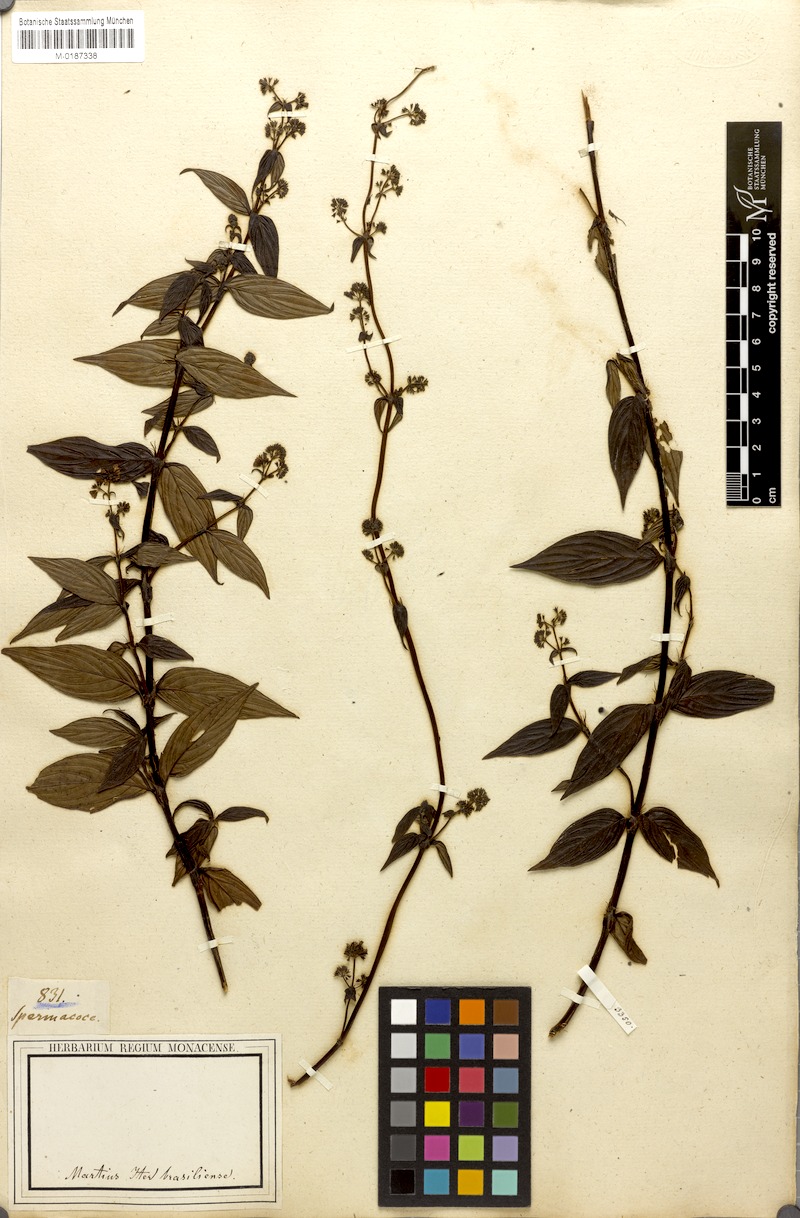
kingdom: Plantae
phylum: Tracheophyta
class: Magnoliopsida
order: Gentianales
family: Rubiaceae
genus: Emmeorhiza
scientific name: Emmeorhiza umbellata
